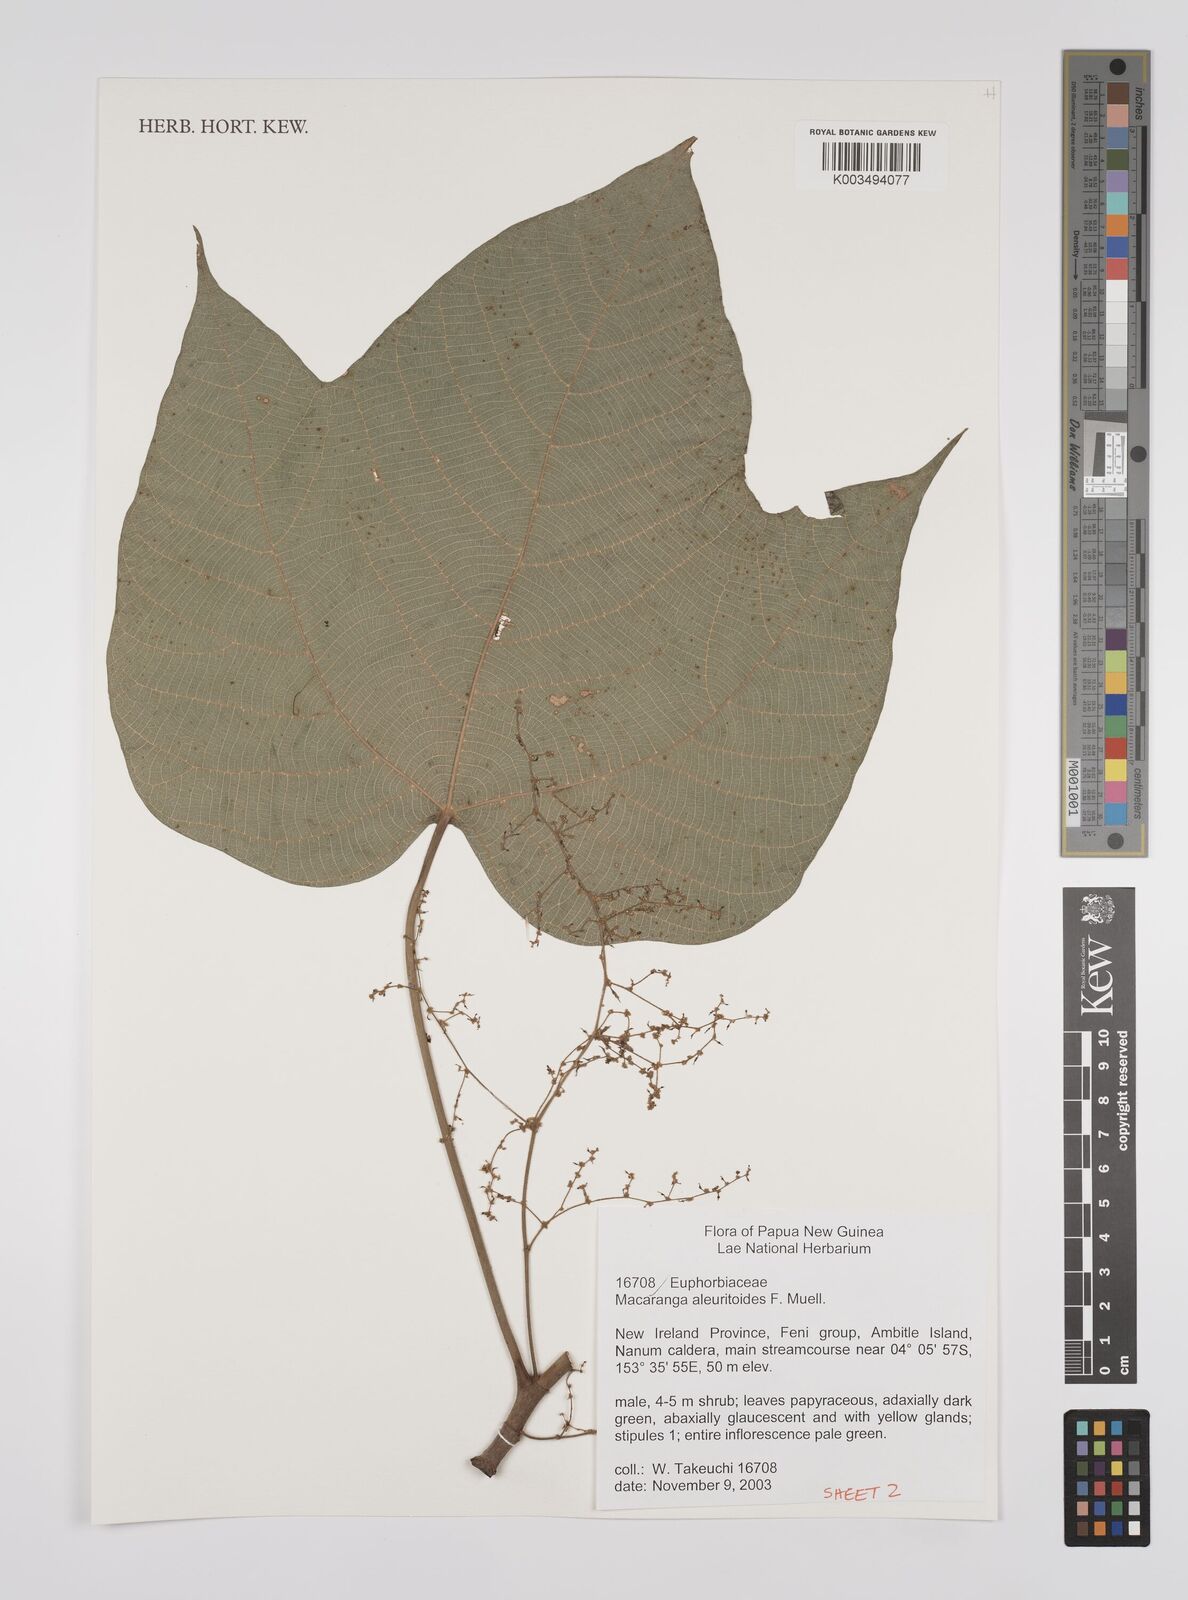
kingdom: Plantae
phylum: Tracheophyta
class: Magnoliopsida
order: Malpighiales
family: Euphorbiaceae
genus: Macaranga
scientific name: Macaranga aleuritoides
